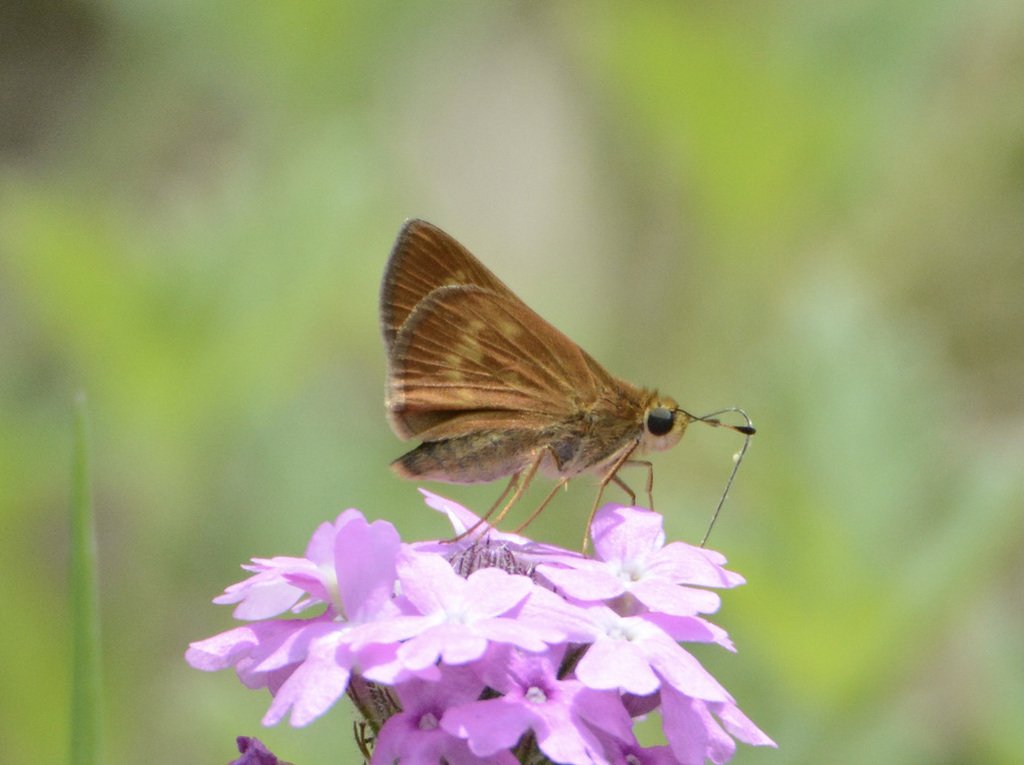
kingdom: Animalia
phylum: Arthropoda
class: Insecta
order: Lepidoptera
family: Hesperiidae
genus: Wallengrenia
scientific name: Wallengrenia otho
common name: Southern Broken-Dash
